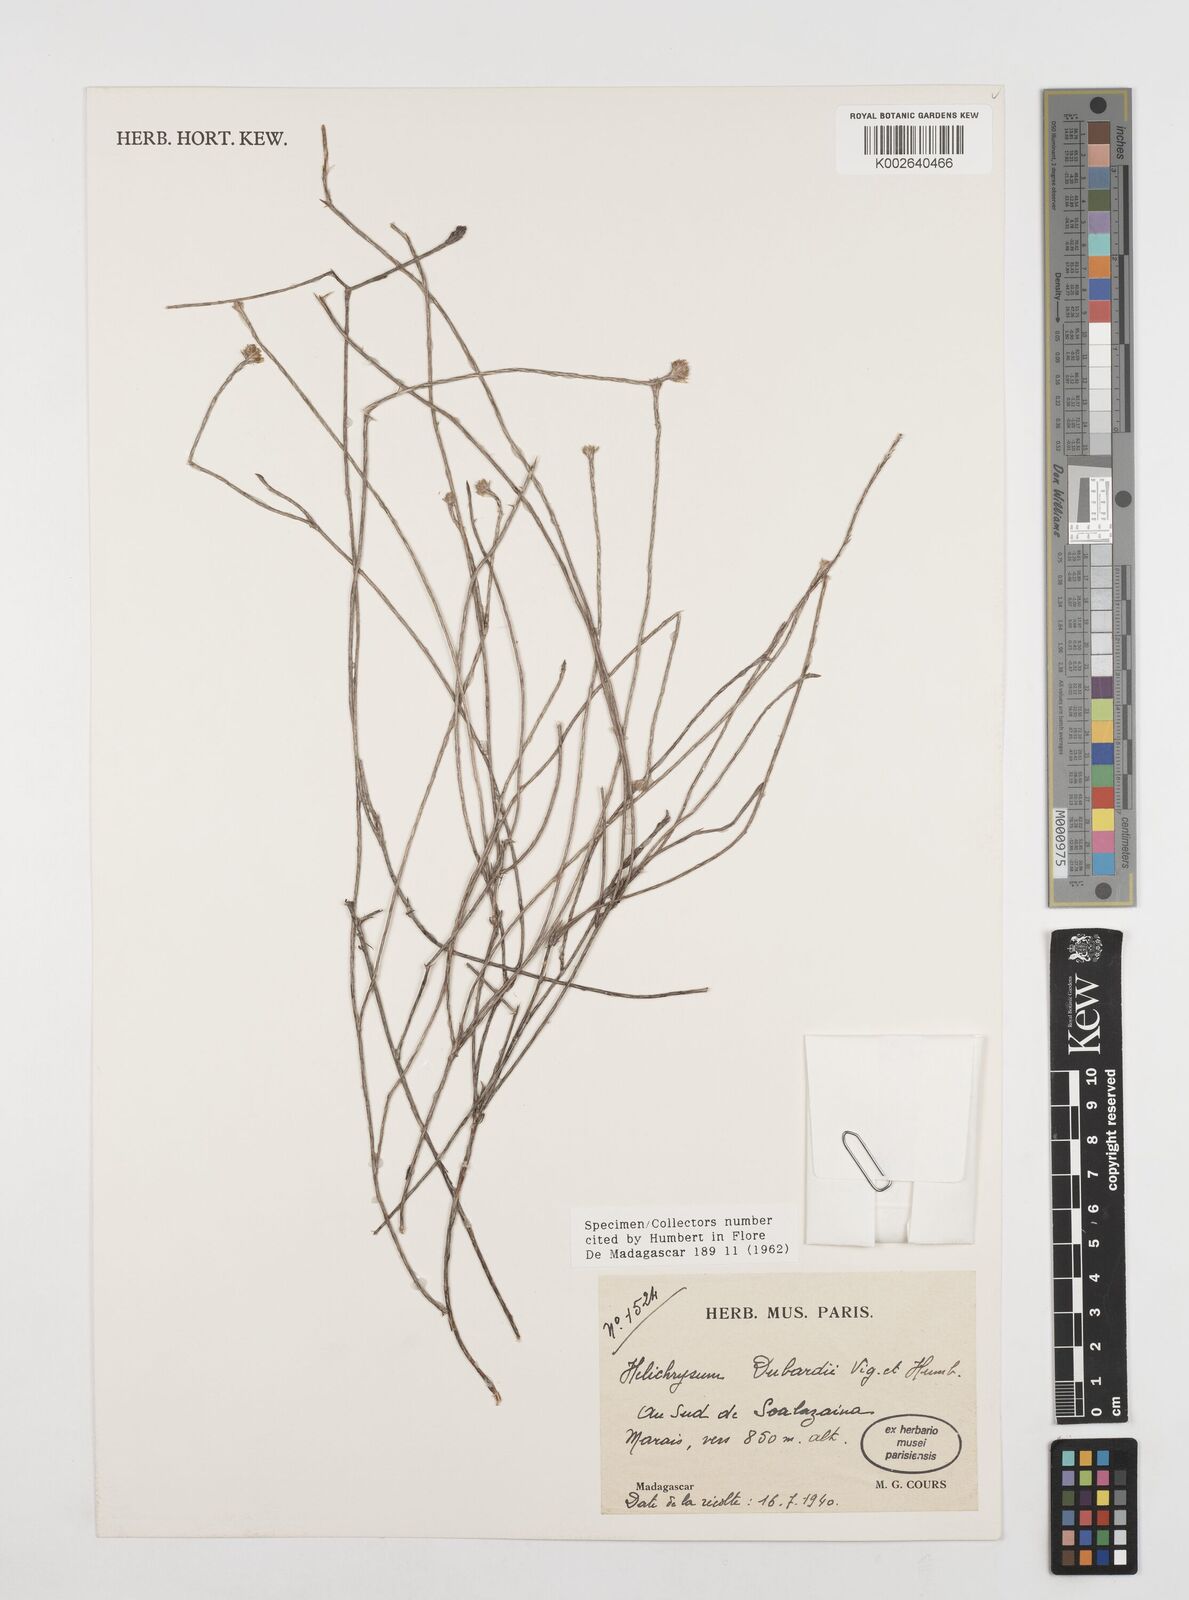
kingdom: Plantae
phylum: Tracheophyta
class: Magnoliopsida
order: Asterales
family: Asteraceae
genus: Helichrysum
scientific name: Helichrysum dubardii
